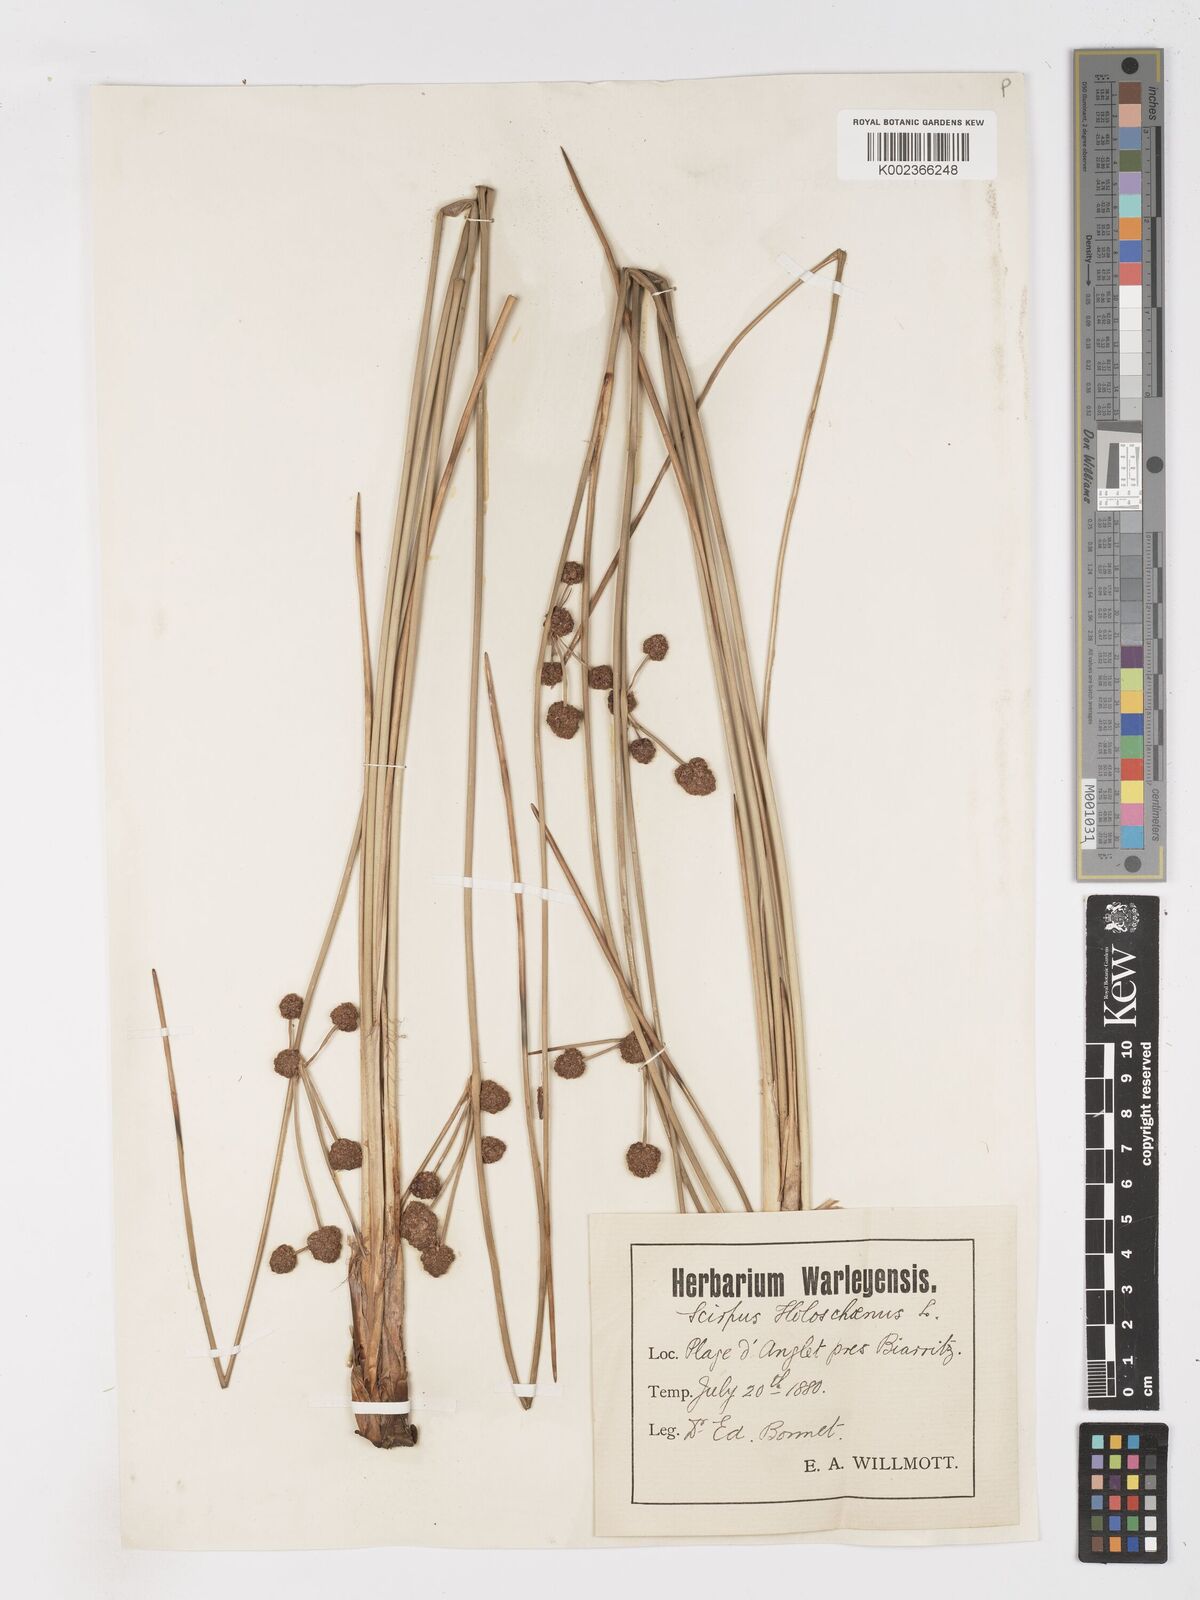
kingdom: Plantae
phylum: Tracheophyta
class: Liliopsida
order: Poales
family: Cyperaceae
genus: Scirpoides
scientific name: Scirpoides holoschoenus
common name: Round-headed club-rush
